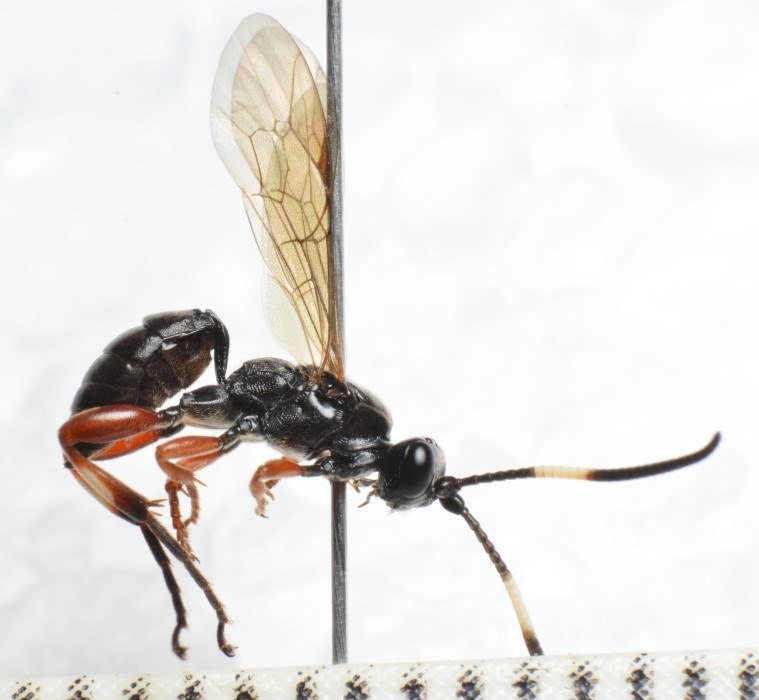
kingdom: Animalia
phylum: Arthropoda
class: Insecta
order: Hymenoptera
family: Ichneumonidae
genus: Cratichneumon
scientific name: Cratichneumon viator
